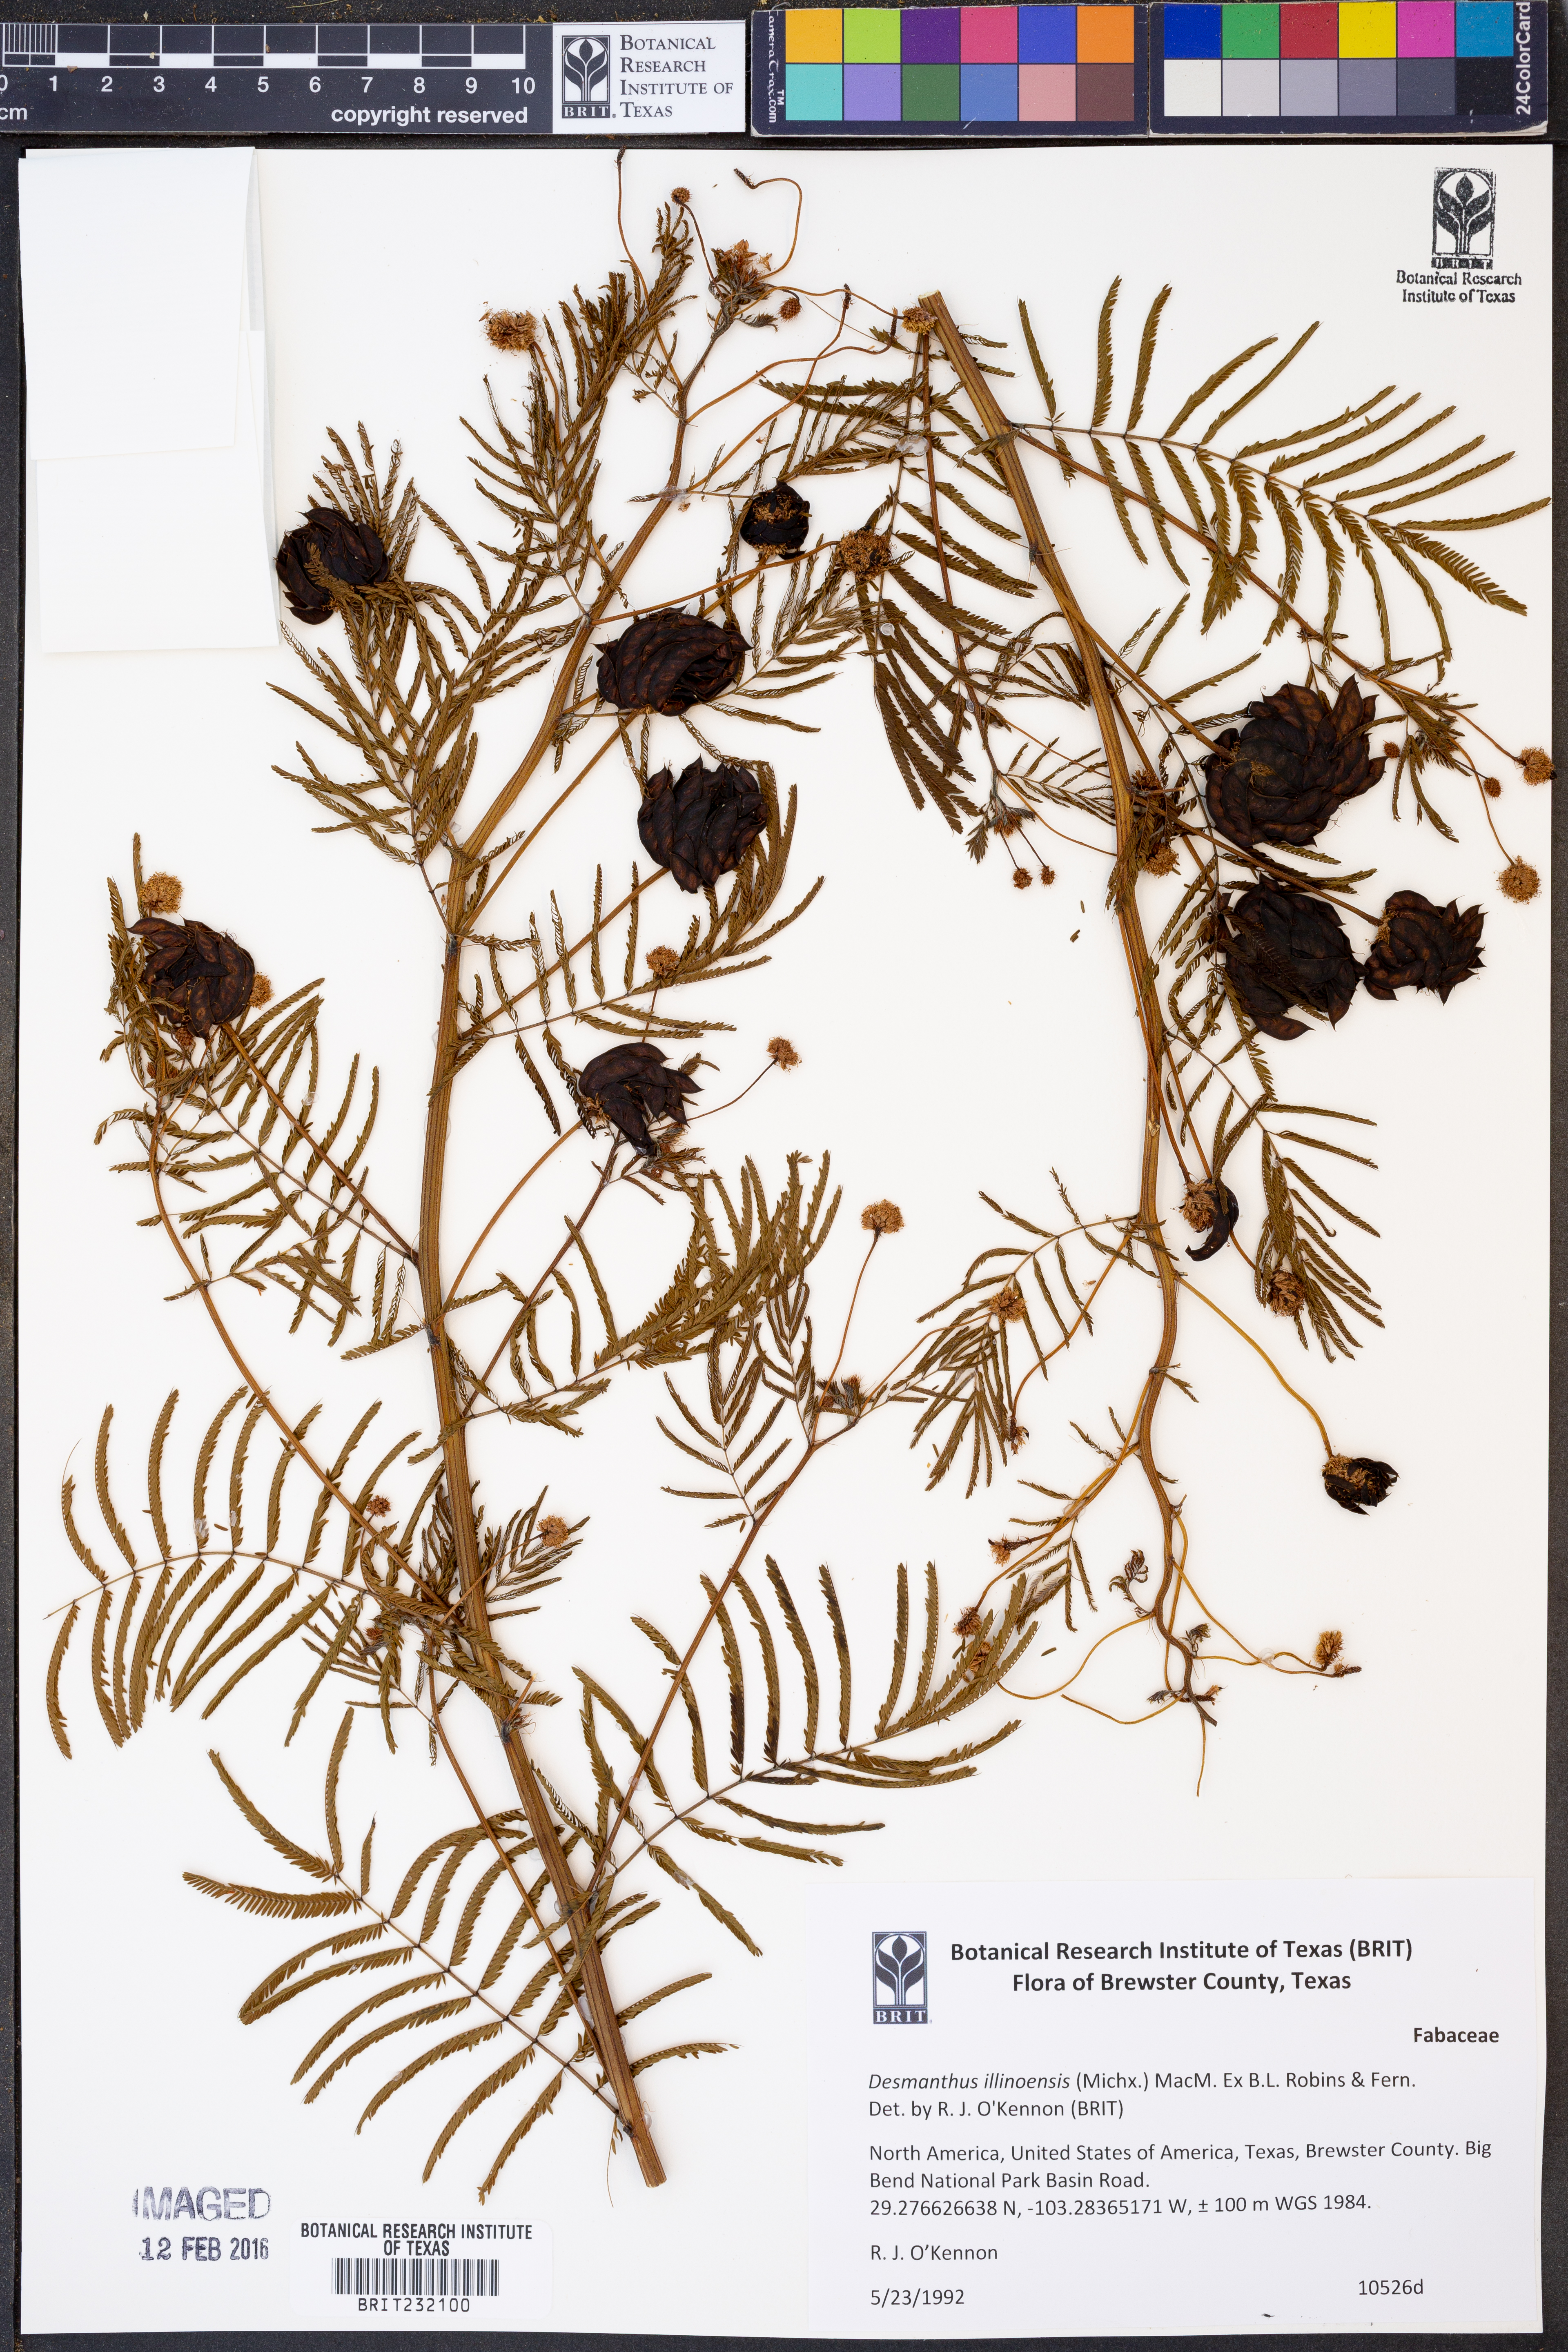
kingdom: Plantae
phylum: Tracheophyta
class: Magnoliopsida
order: Fabales
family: Fabaceae
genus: Desmanthus
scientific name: Desmanthus illinoensis
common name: Illinois bundle-flower
